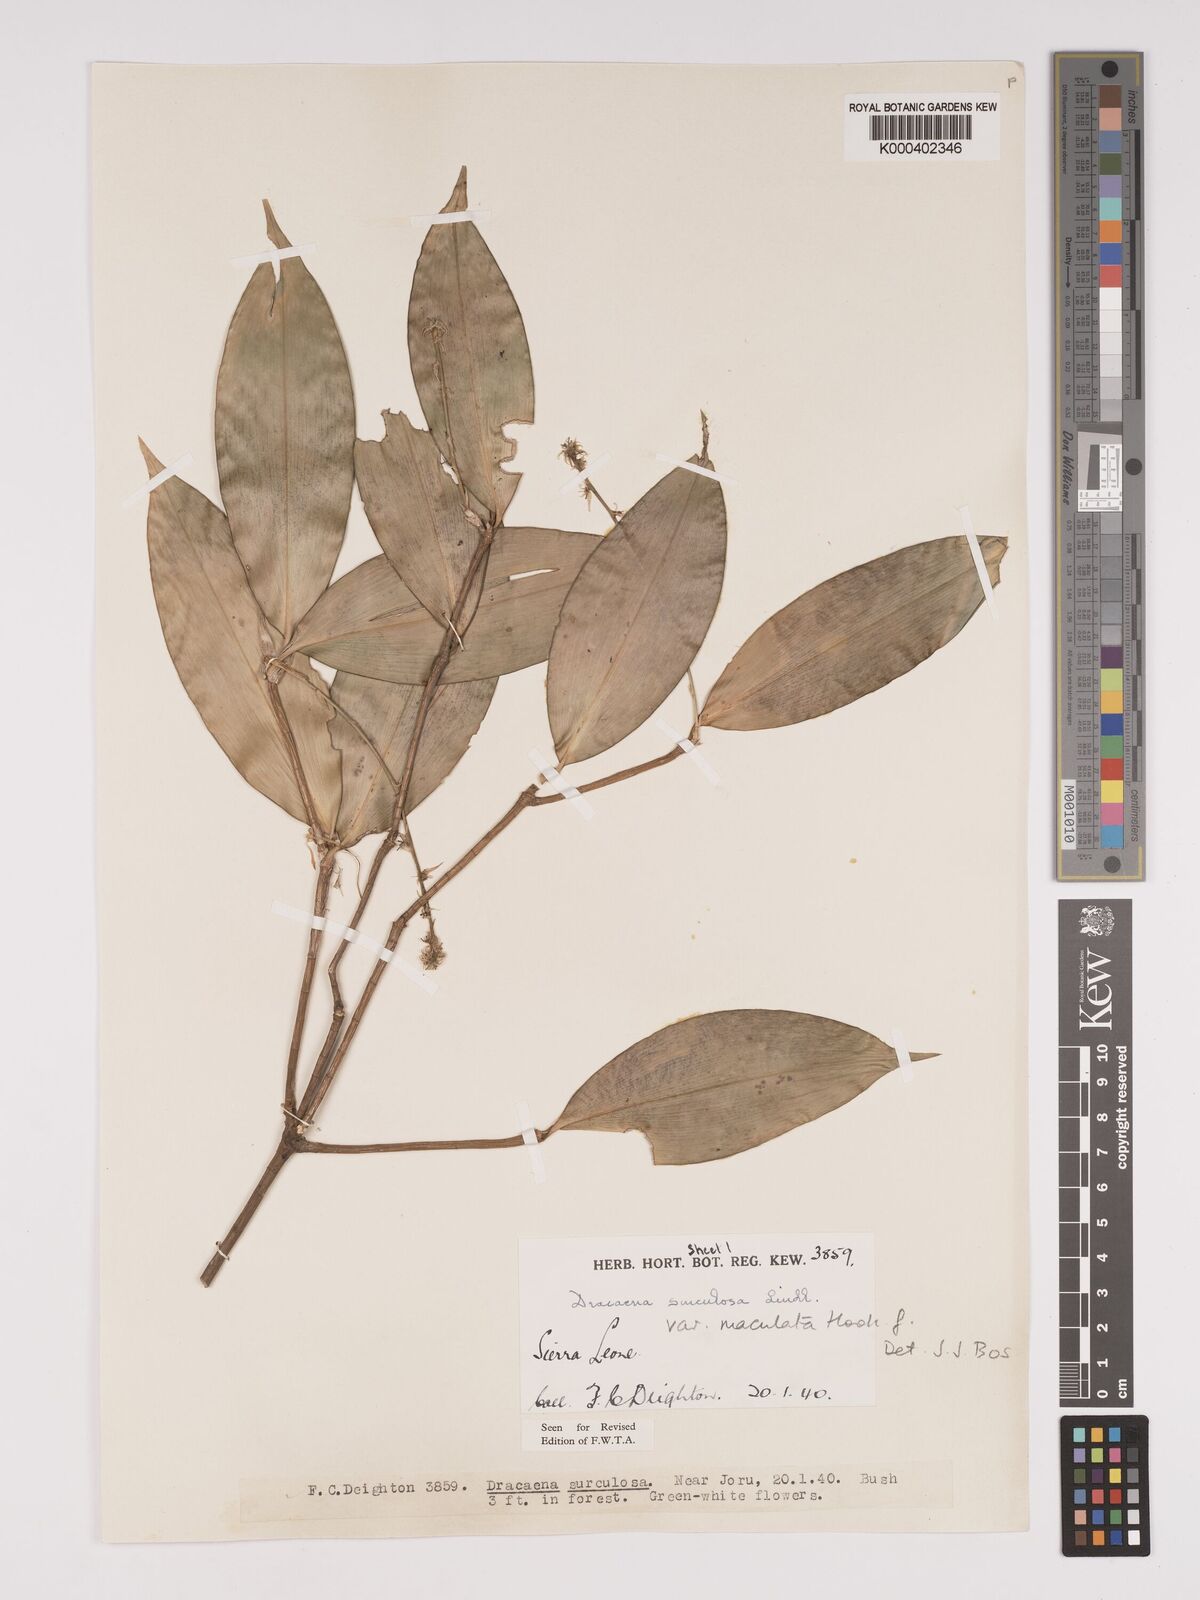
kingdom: Plantae
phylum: Tracheophyta
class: Liliopsida
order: Asparagales
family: Asparagaceae
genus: Dracaena
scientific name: Dracaena surculosa
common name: Spotted dracaena
